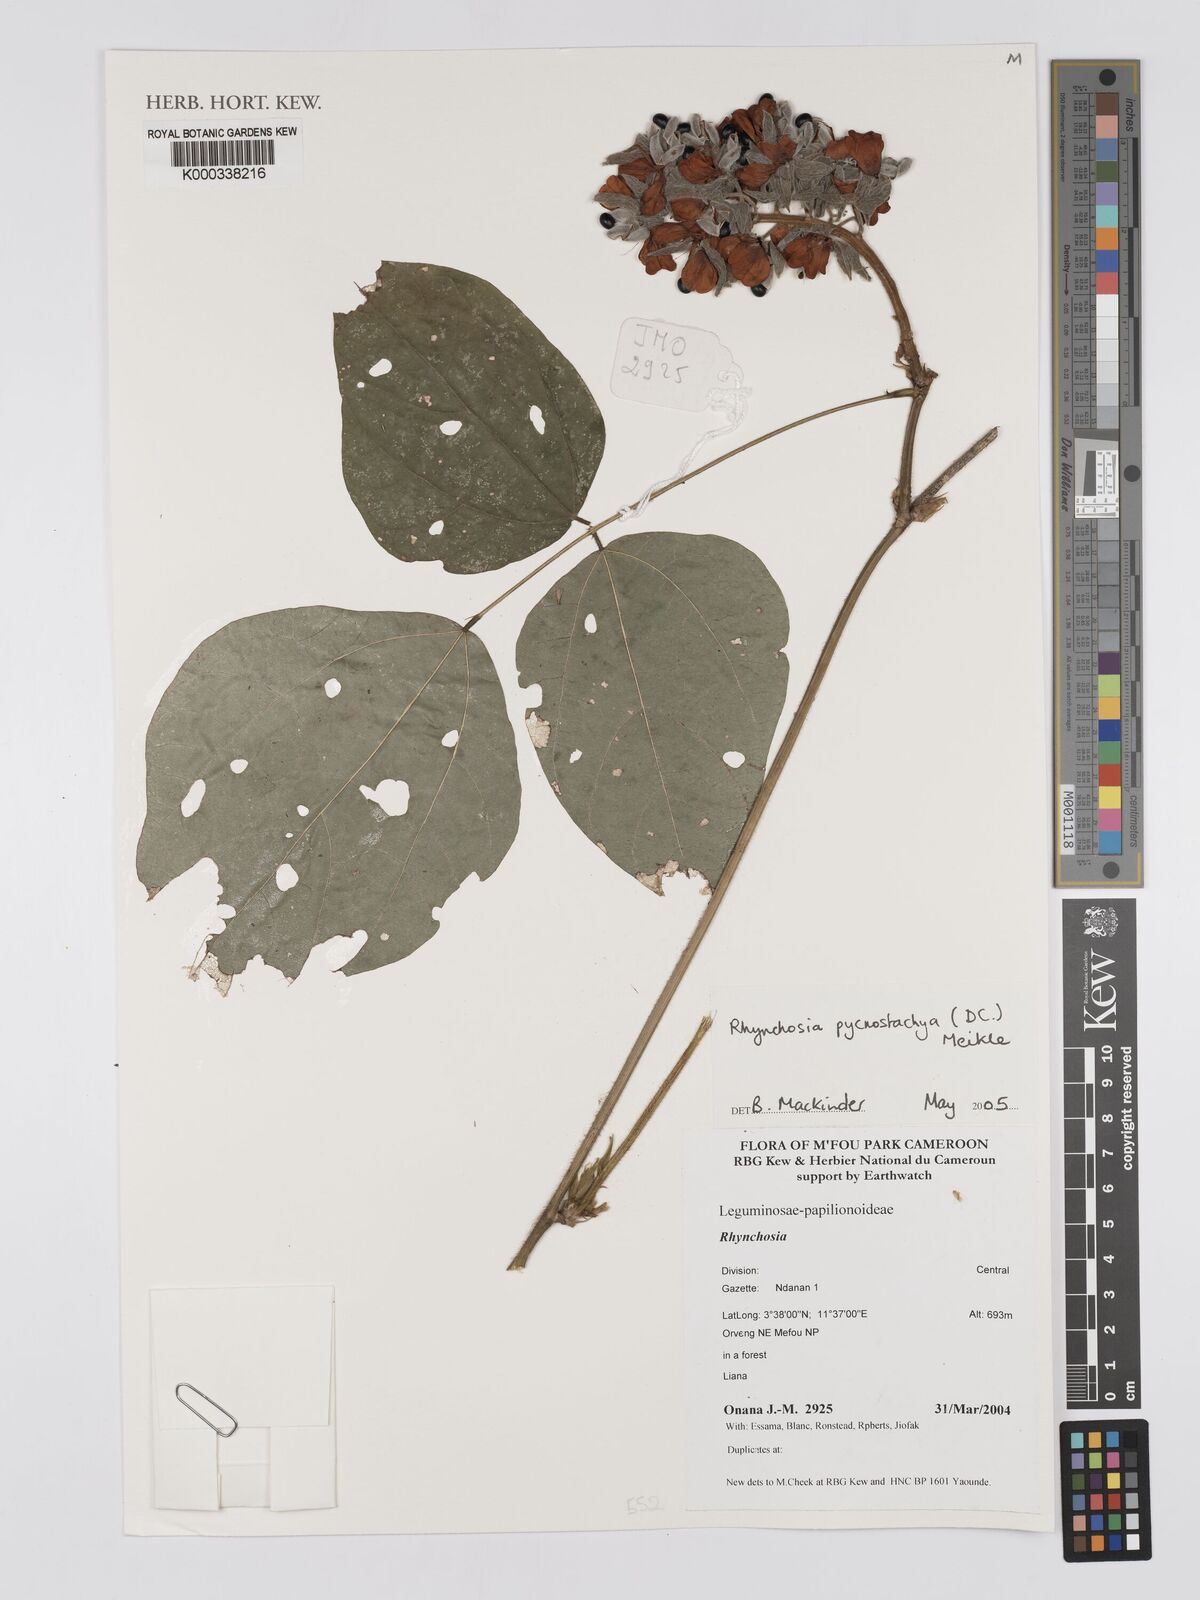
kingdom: Plantae
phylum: Tracheophyta
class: Magnoliopsida
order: Fabales
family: Fabaceae
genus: Rhynchosia
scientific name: Rhynchosia pycnostachya
